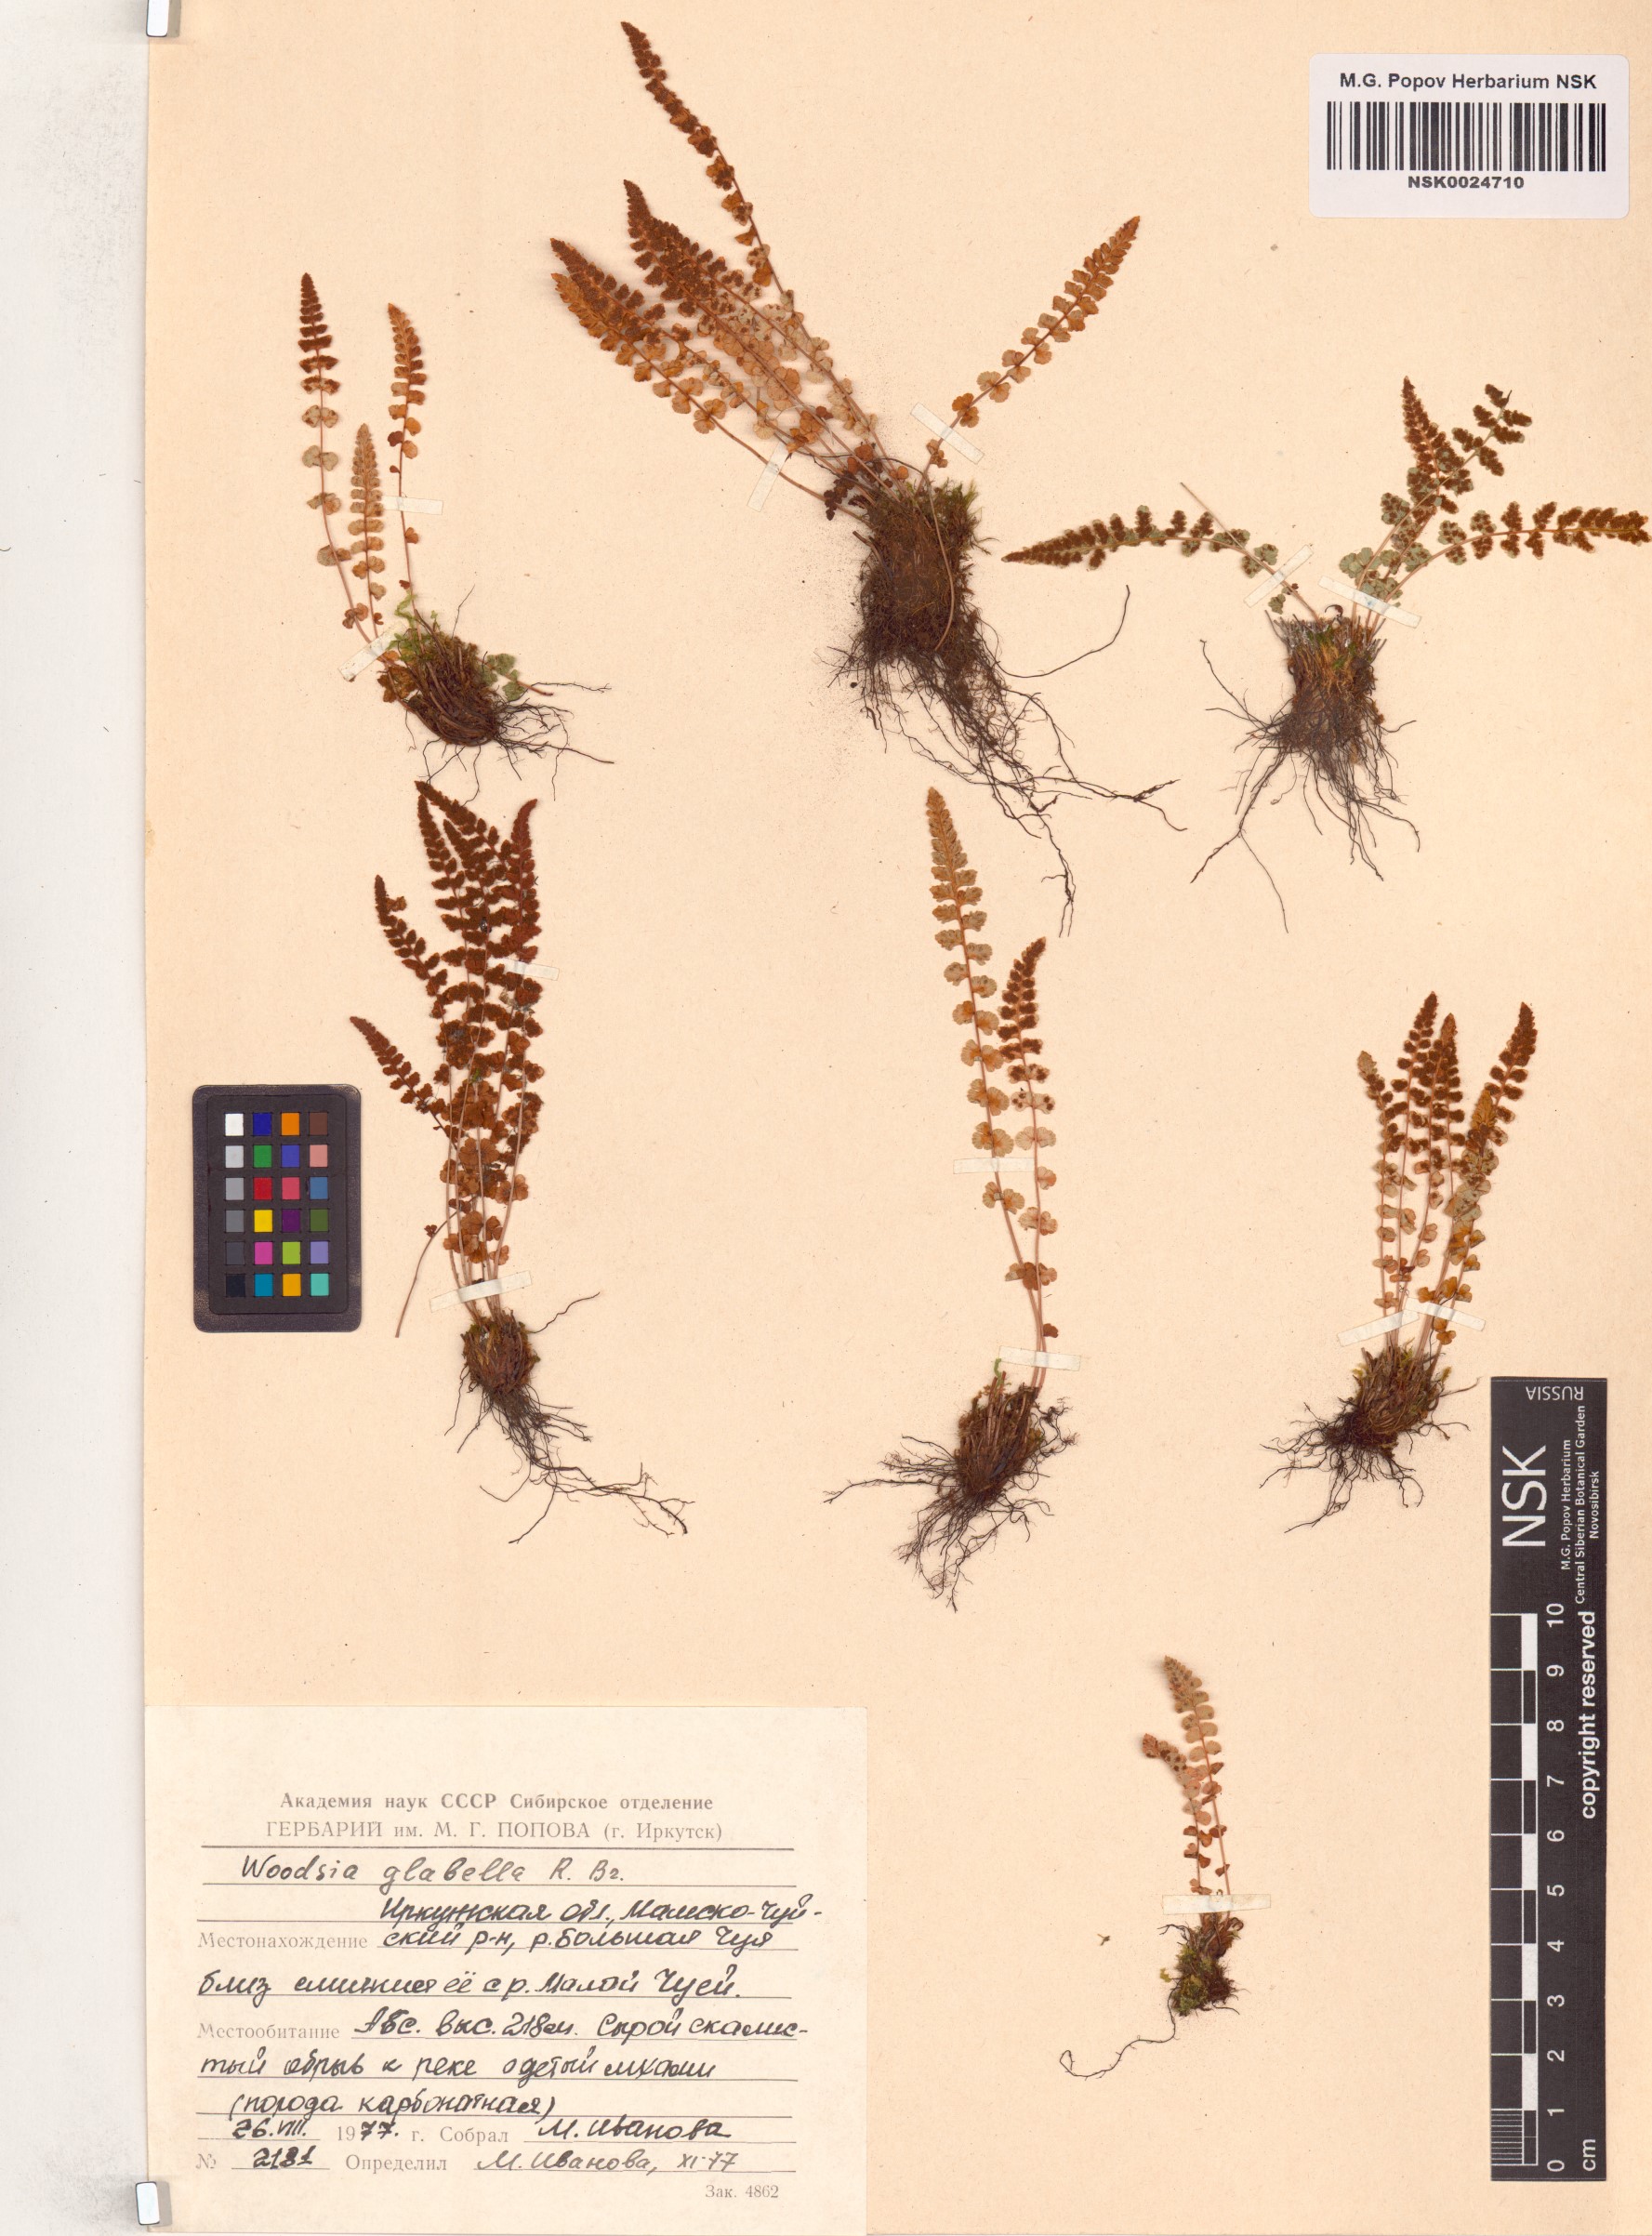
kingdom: Plantae
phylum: Tracheophyta
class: Polypodiopsida
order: Polypodiales
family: Woodsiaceae
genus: Woodsia
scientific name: Woodsia glabella
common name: Smooth woodsia
